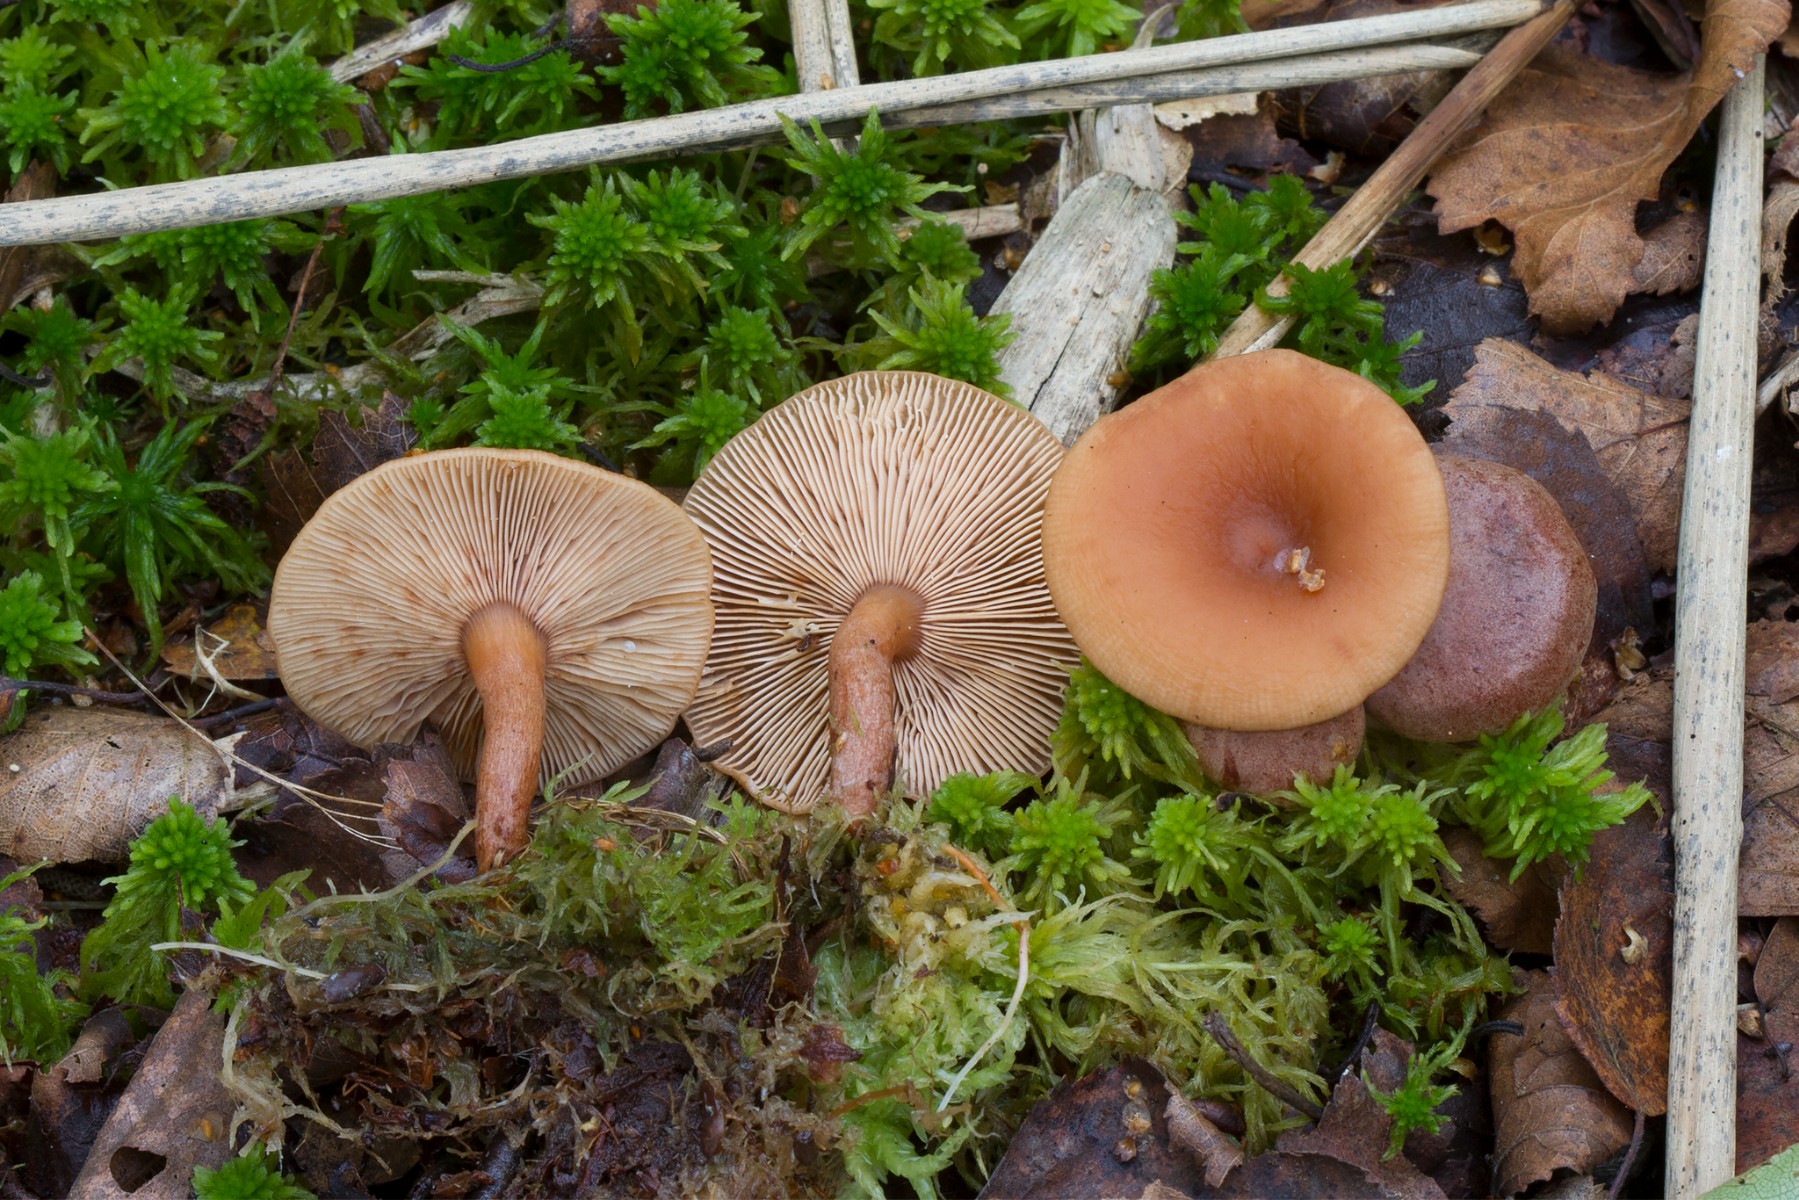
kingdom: Fungi
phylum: Basidiomycota
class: Agaricomycetes
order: Russulales
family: Russulaceae
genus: Lactarius
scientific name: Lactarius tabidus
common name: rynket mælkehat
